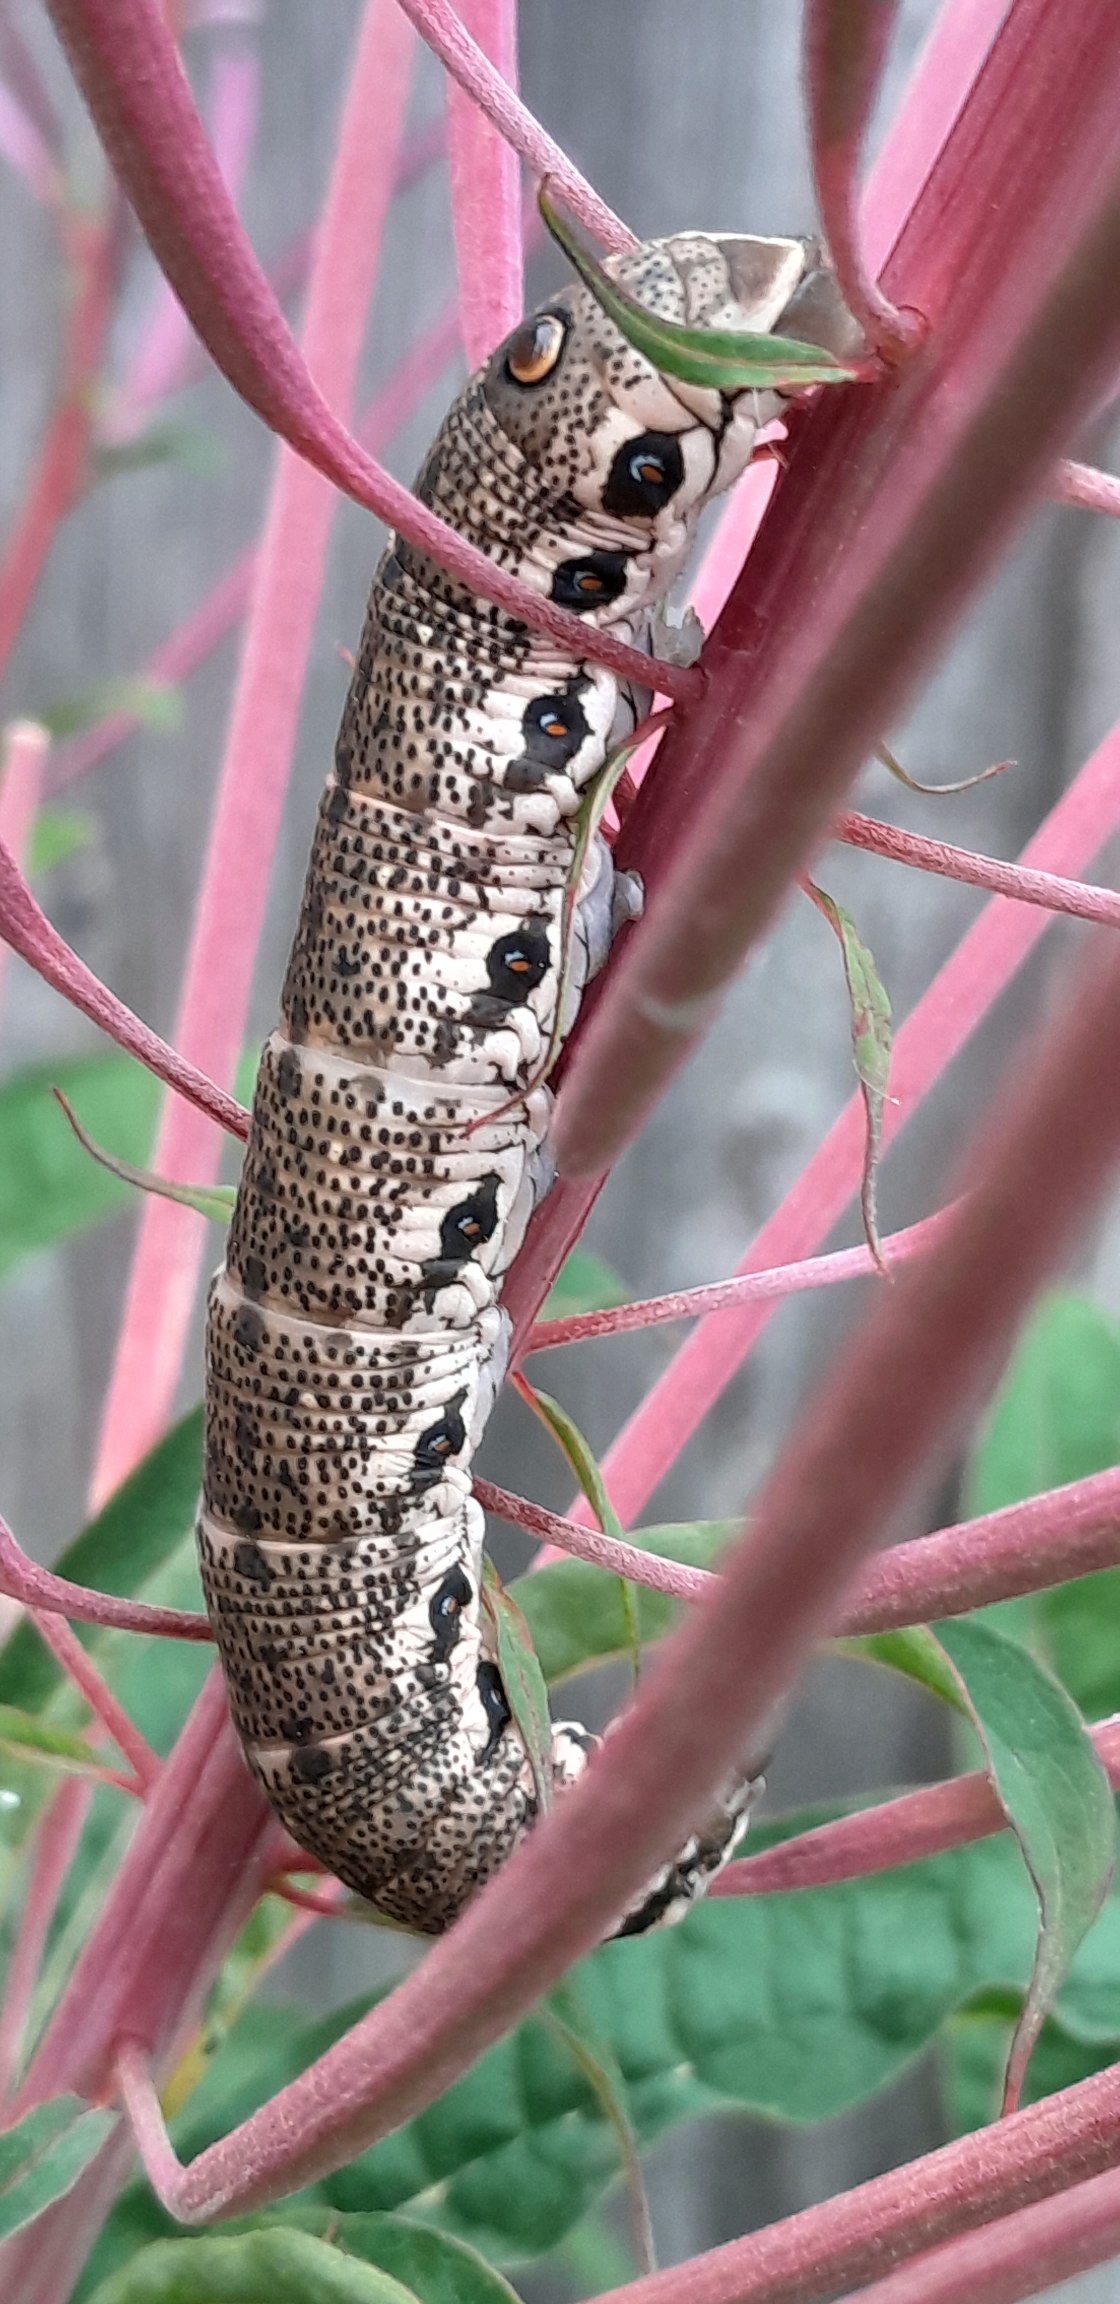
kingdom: Animalia
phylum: Arthropoda
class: Insecta
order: Lepidoptera
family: Sphingidae
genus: Proserpinus
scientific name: Proserpinus proserpina
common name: Natlyssværmer
